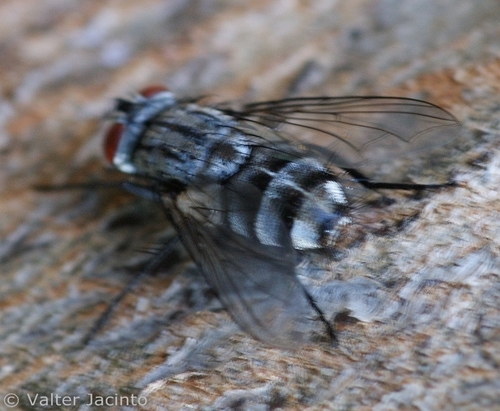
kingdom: Animalia
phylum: Arthropoda
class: Insecta
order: Diptera
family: Tachinidae
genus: Billaea
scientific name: Billaea
